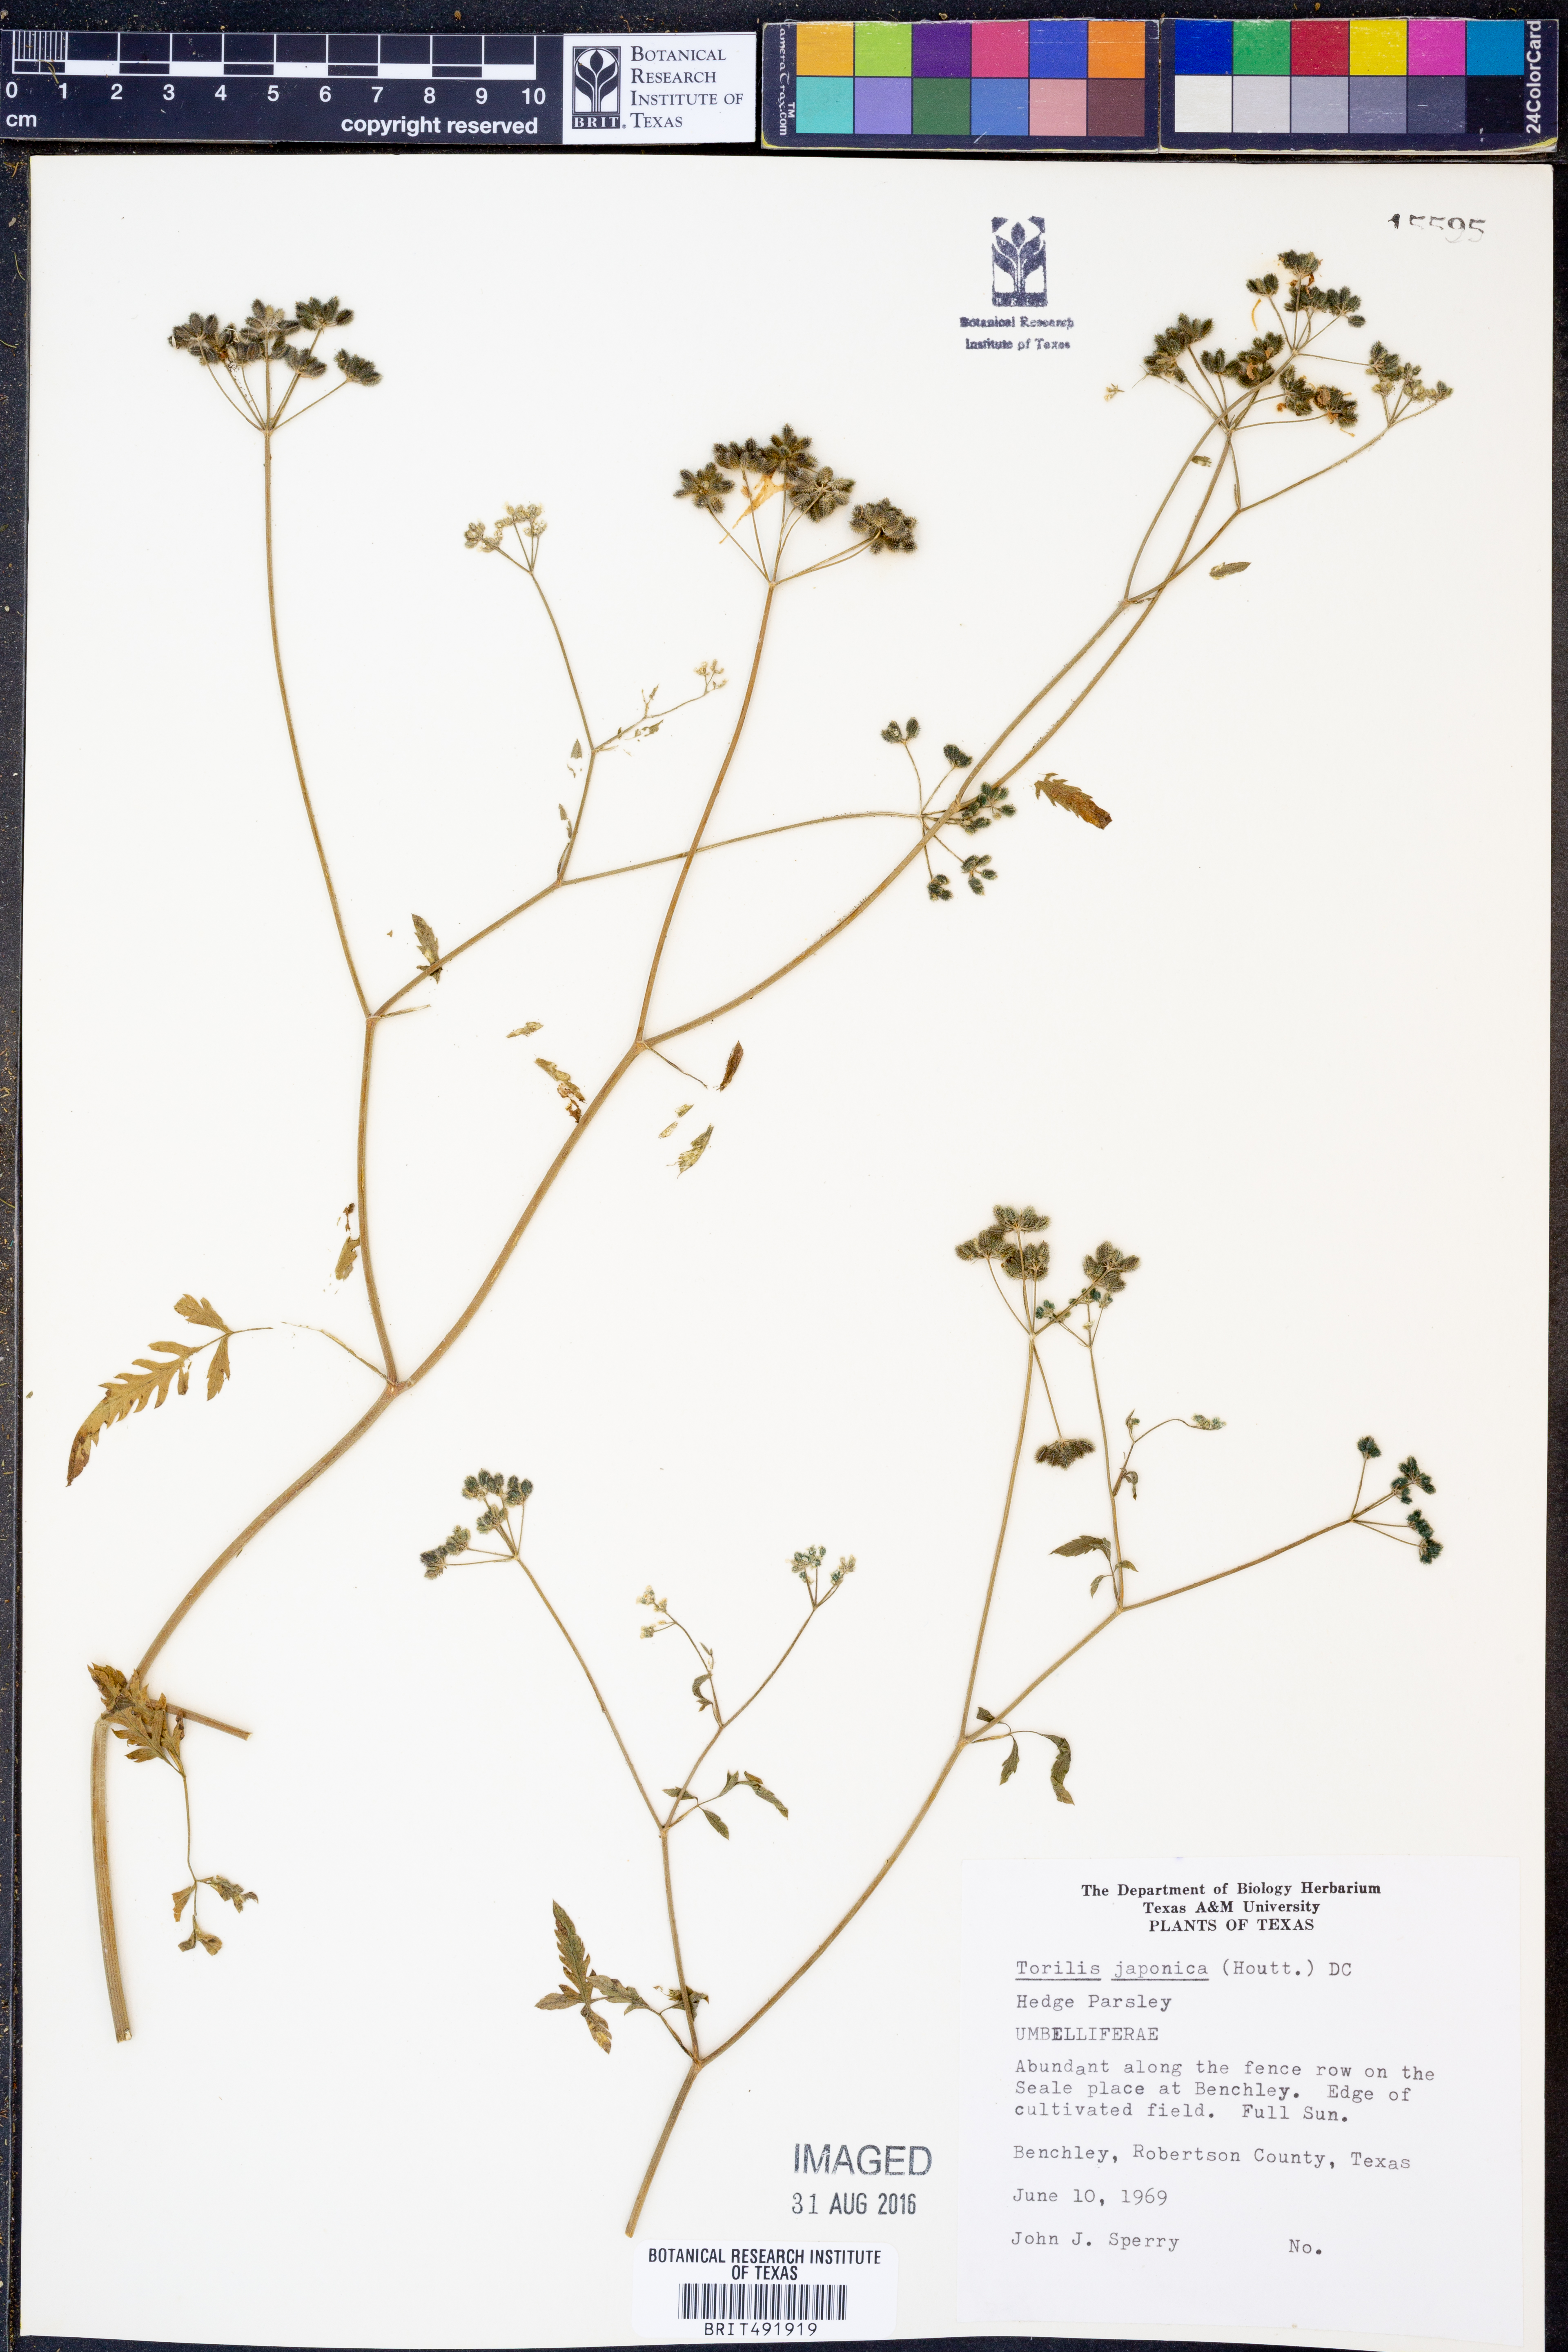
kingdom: Plantae
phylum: Tracheophyta
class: Magnoliopsida
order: Apiales
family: Apiaceae
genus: Torilis
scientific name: Torilis japonica
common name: Upright hedge-parsley
